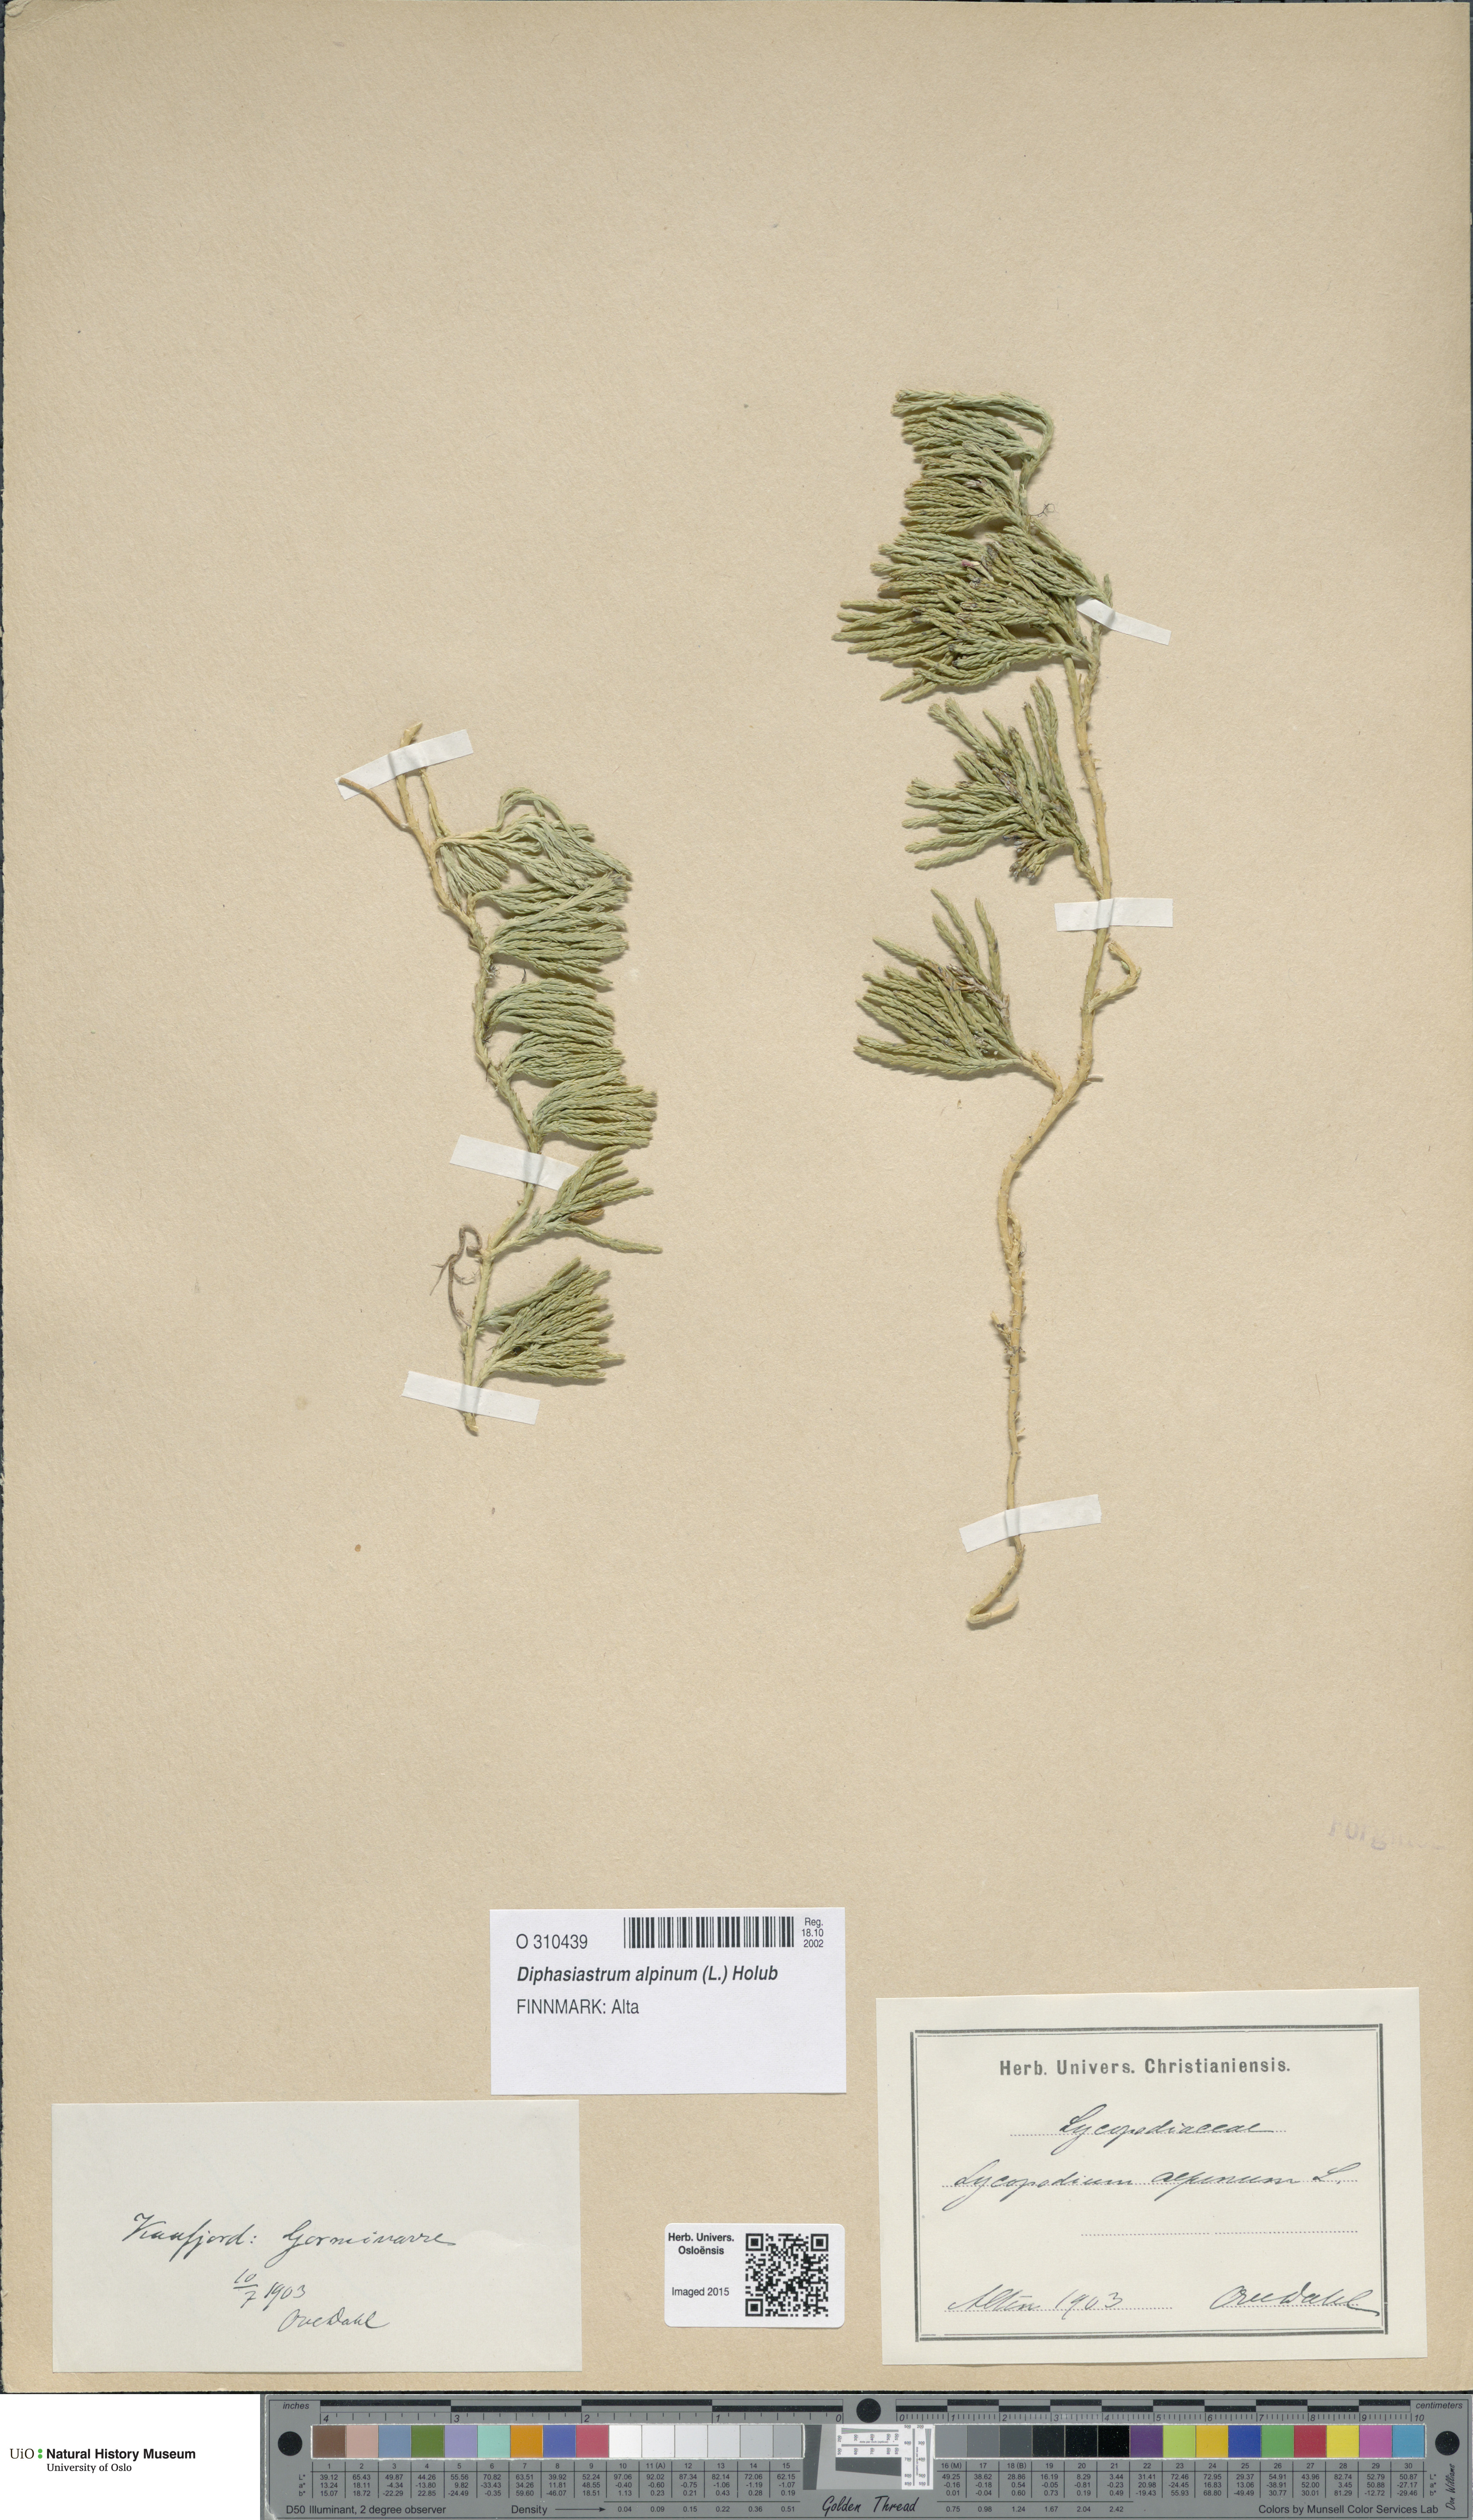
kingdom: Plantae
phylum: Tracheophyta
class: Lycopodiopsida
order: Lycopodiales
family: Lycopodiaceae
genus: Diphasiastrum
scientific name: Diphasiastrum alpinum
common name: Alpine clubmoss
